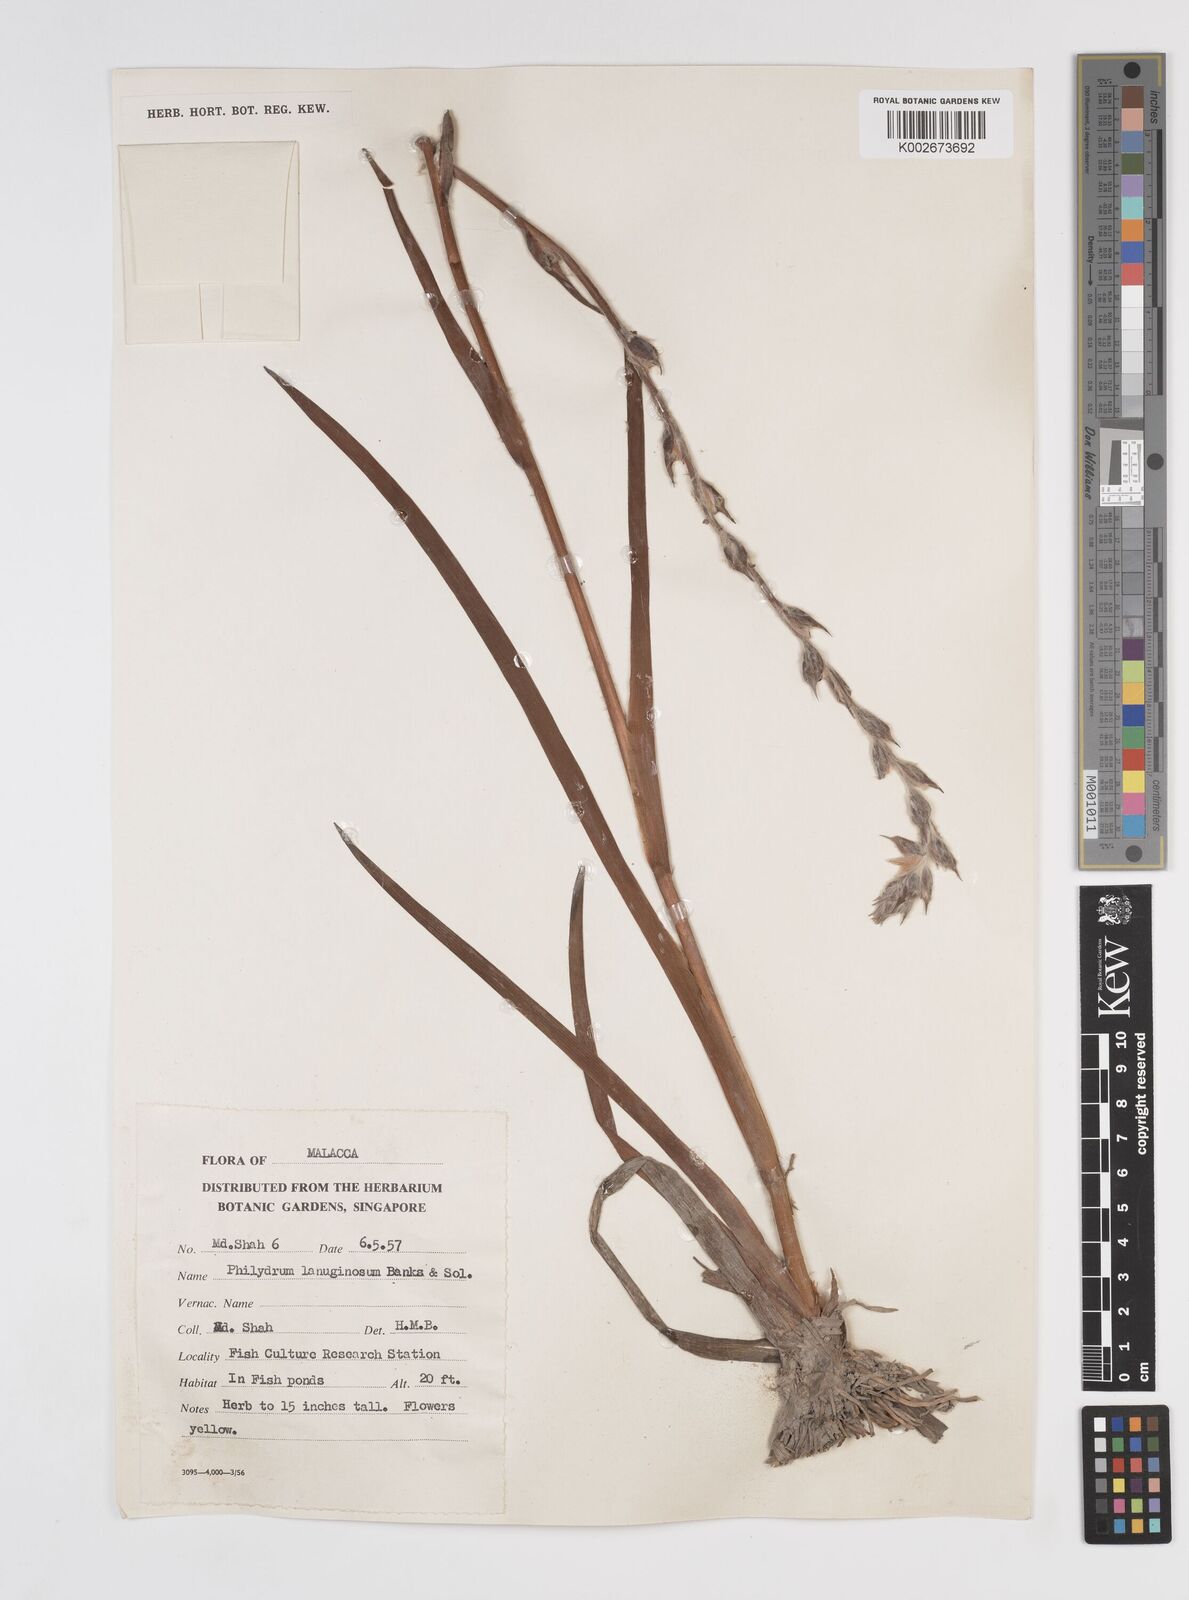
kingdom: Plantae
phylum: Tracheophyta
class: Liliopsida
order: Commelinales
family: Philydraceae
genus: Philydrum
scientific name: Philydrum lanuginosum
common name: Woolly frog's mouth
